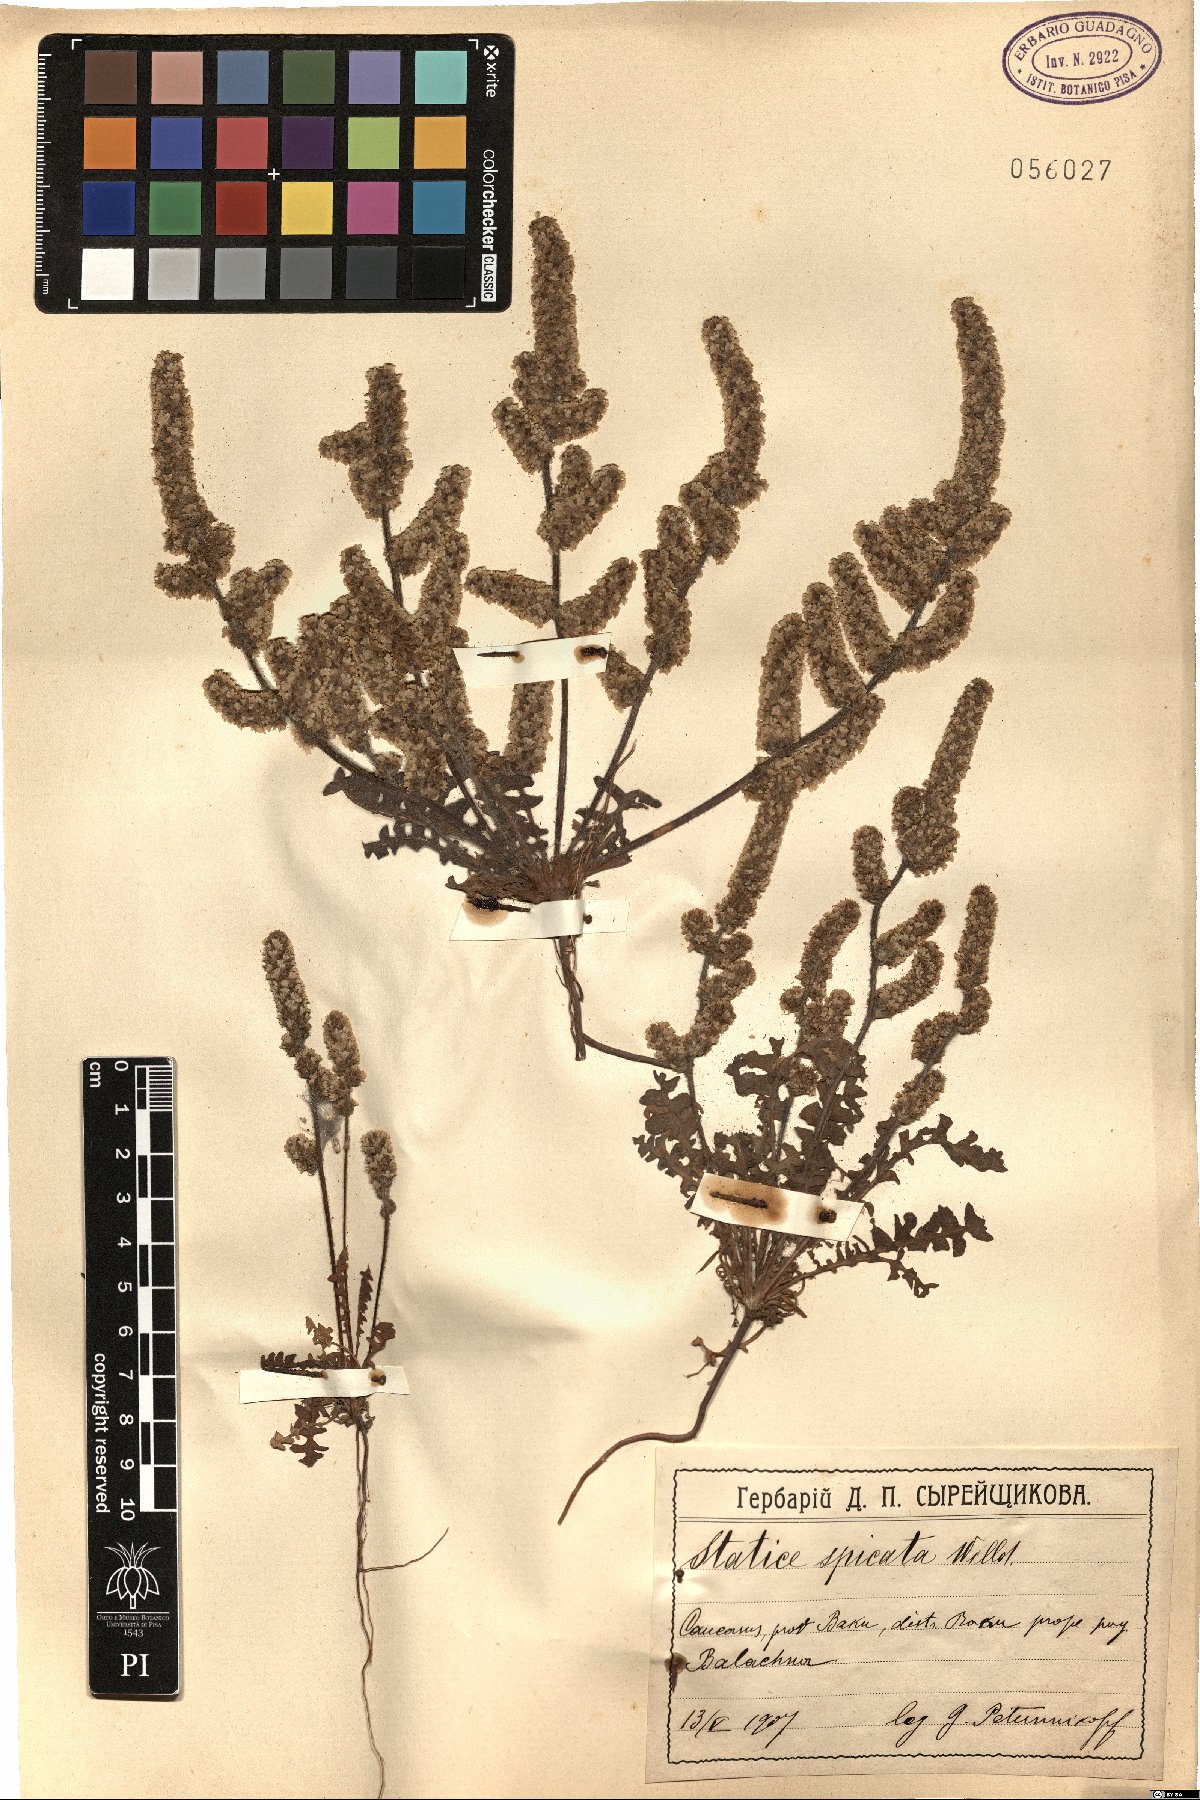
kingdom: Plantae
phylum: Tracheophyta
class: Magnoliopsida
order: Caryophyllales
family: Plumbaginaceae
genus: Psylliostachys
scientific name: Psylliostachys spicatus
